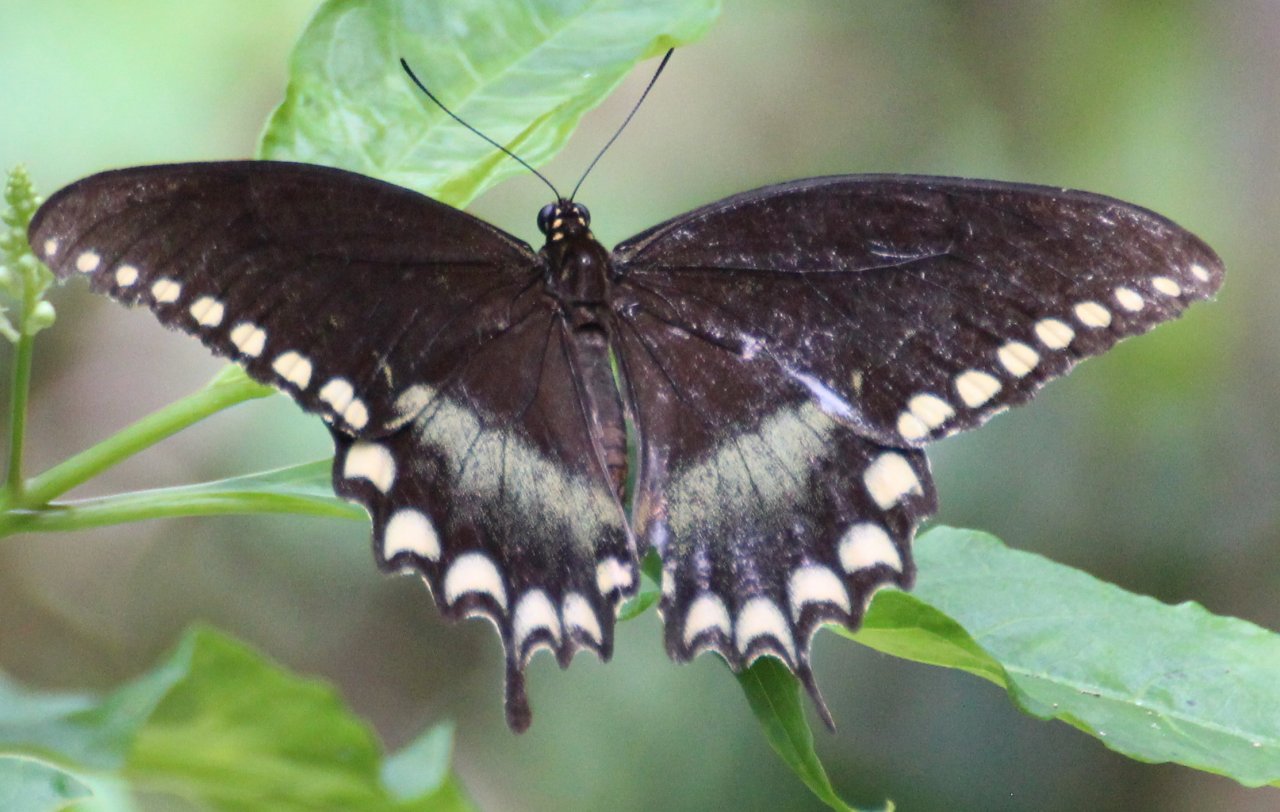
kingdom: Animalia
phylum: Arthropoda
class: Insecta
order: Lepidoptera
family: Papilionidae
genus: Pterourus
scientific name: Pterourus troilus
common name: Spicebush Swallowtail
